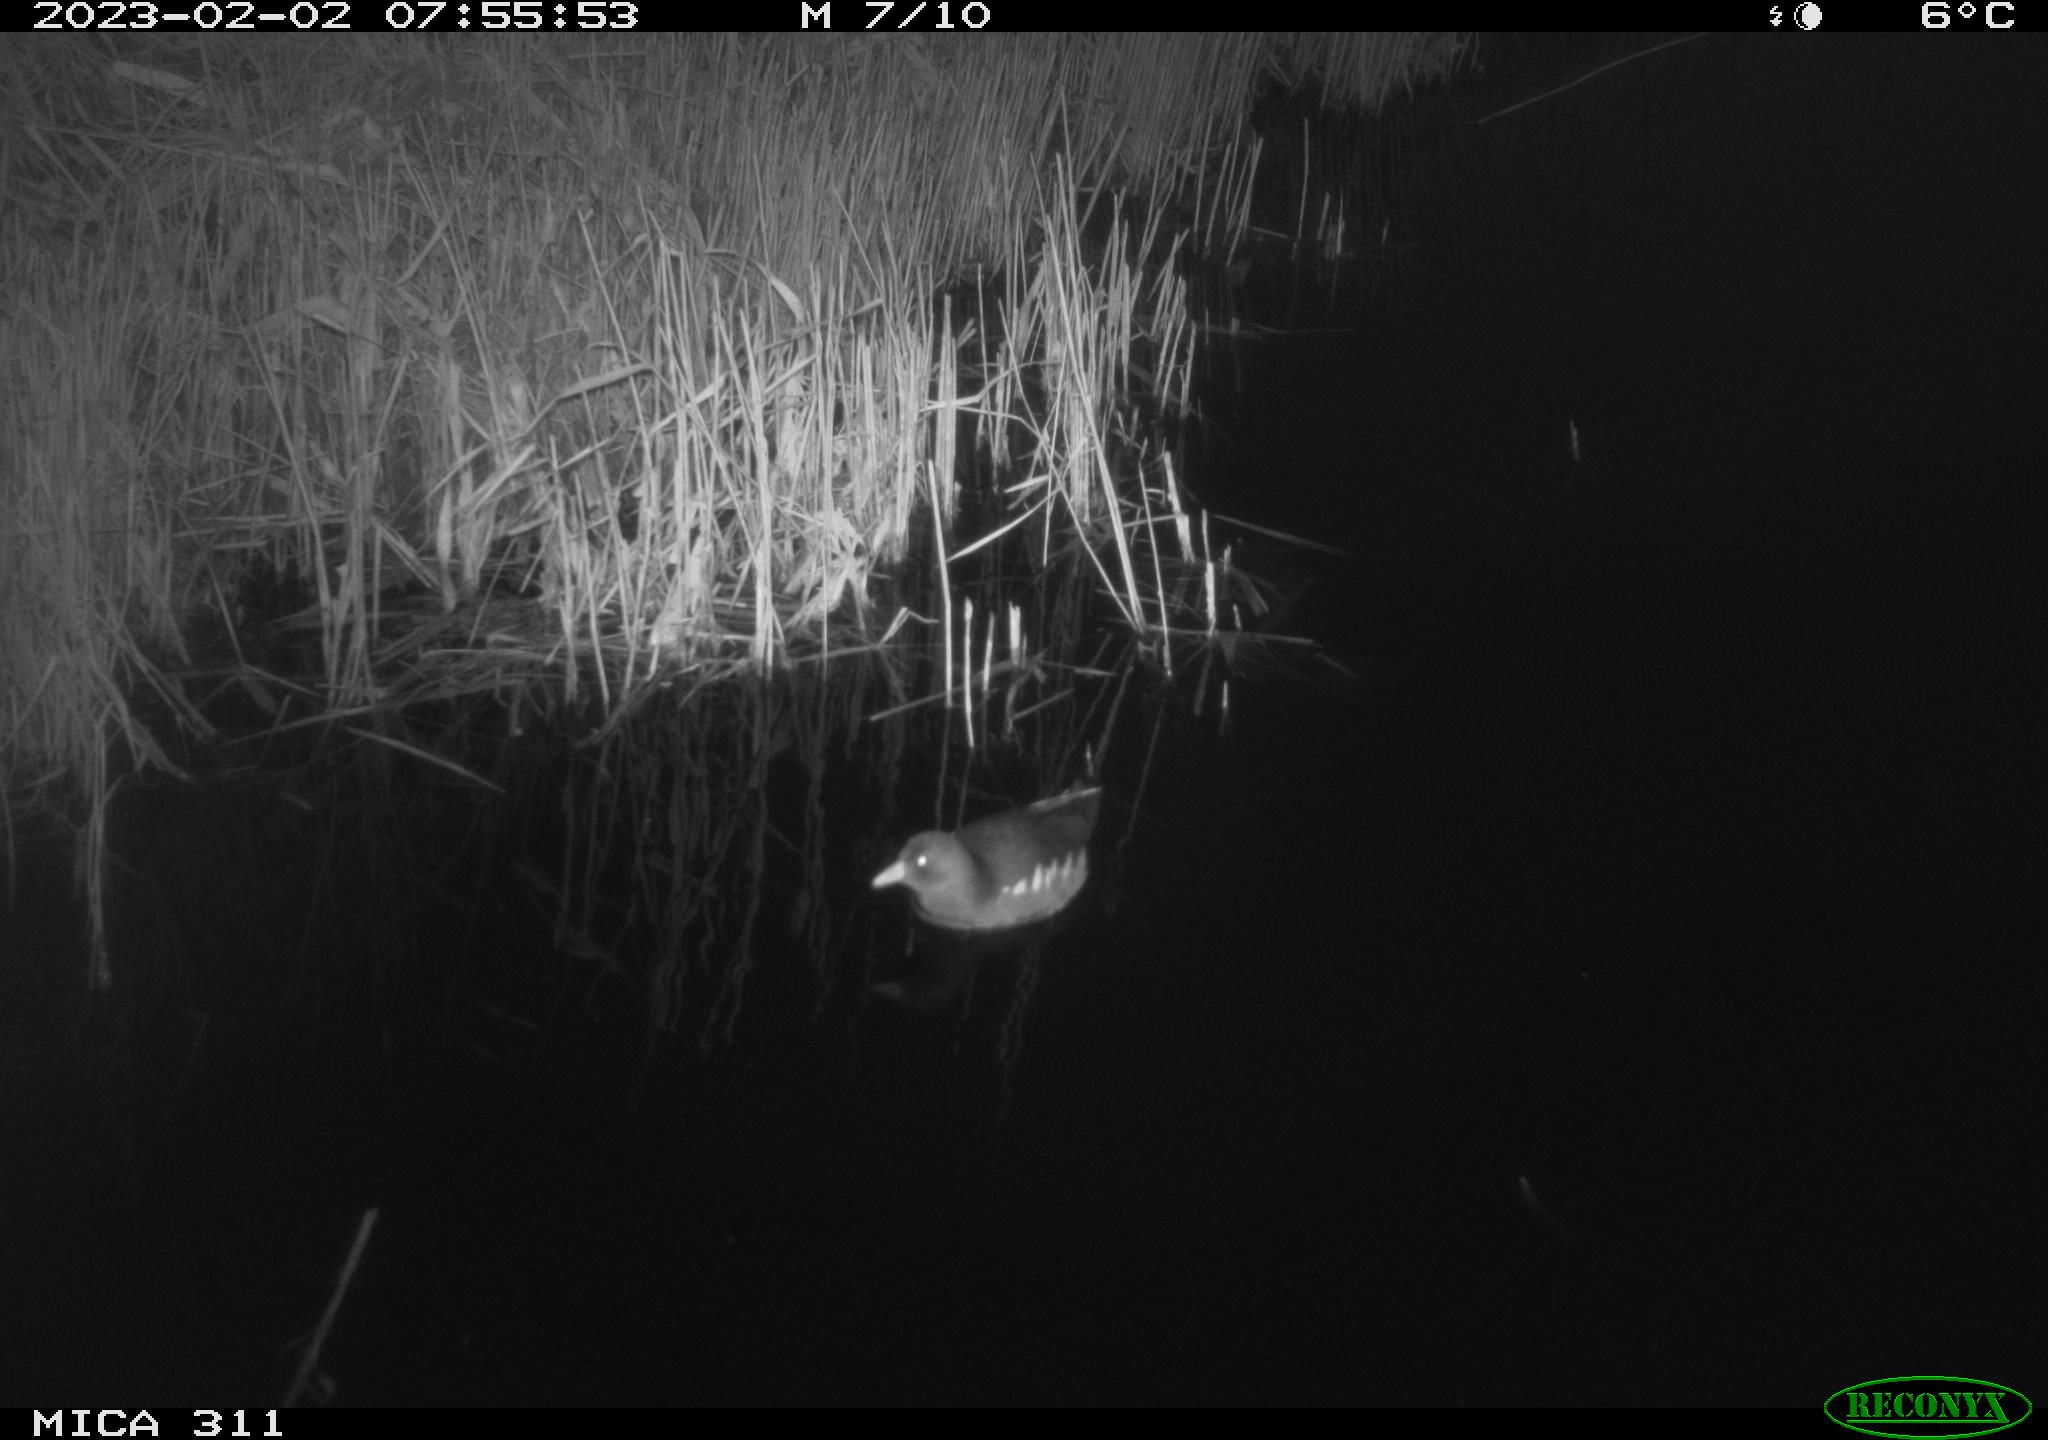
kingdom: Animalia
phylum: Chordata
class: Aves
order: Gruiformes
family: Rallidae
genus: Gallinula
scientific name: Gallinula chloropus
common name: Common moorhen
